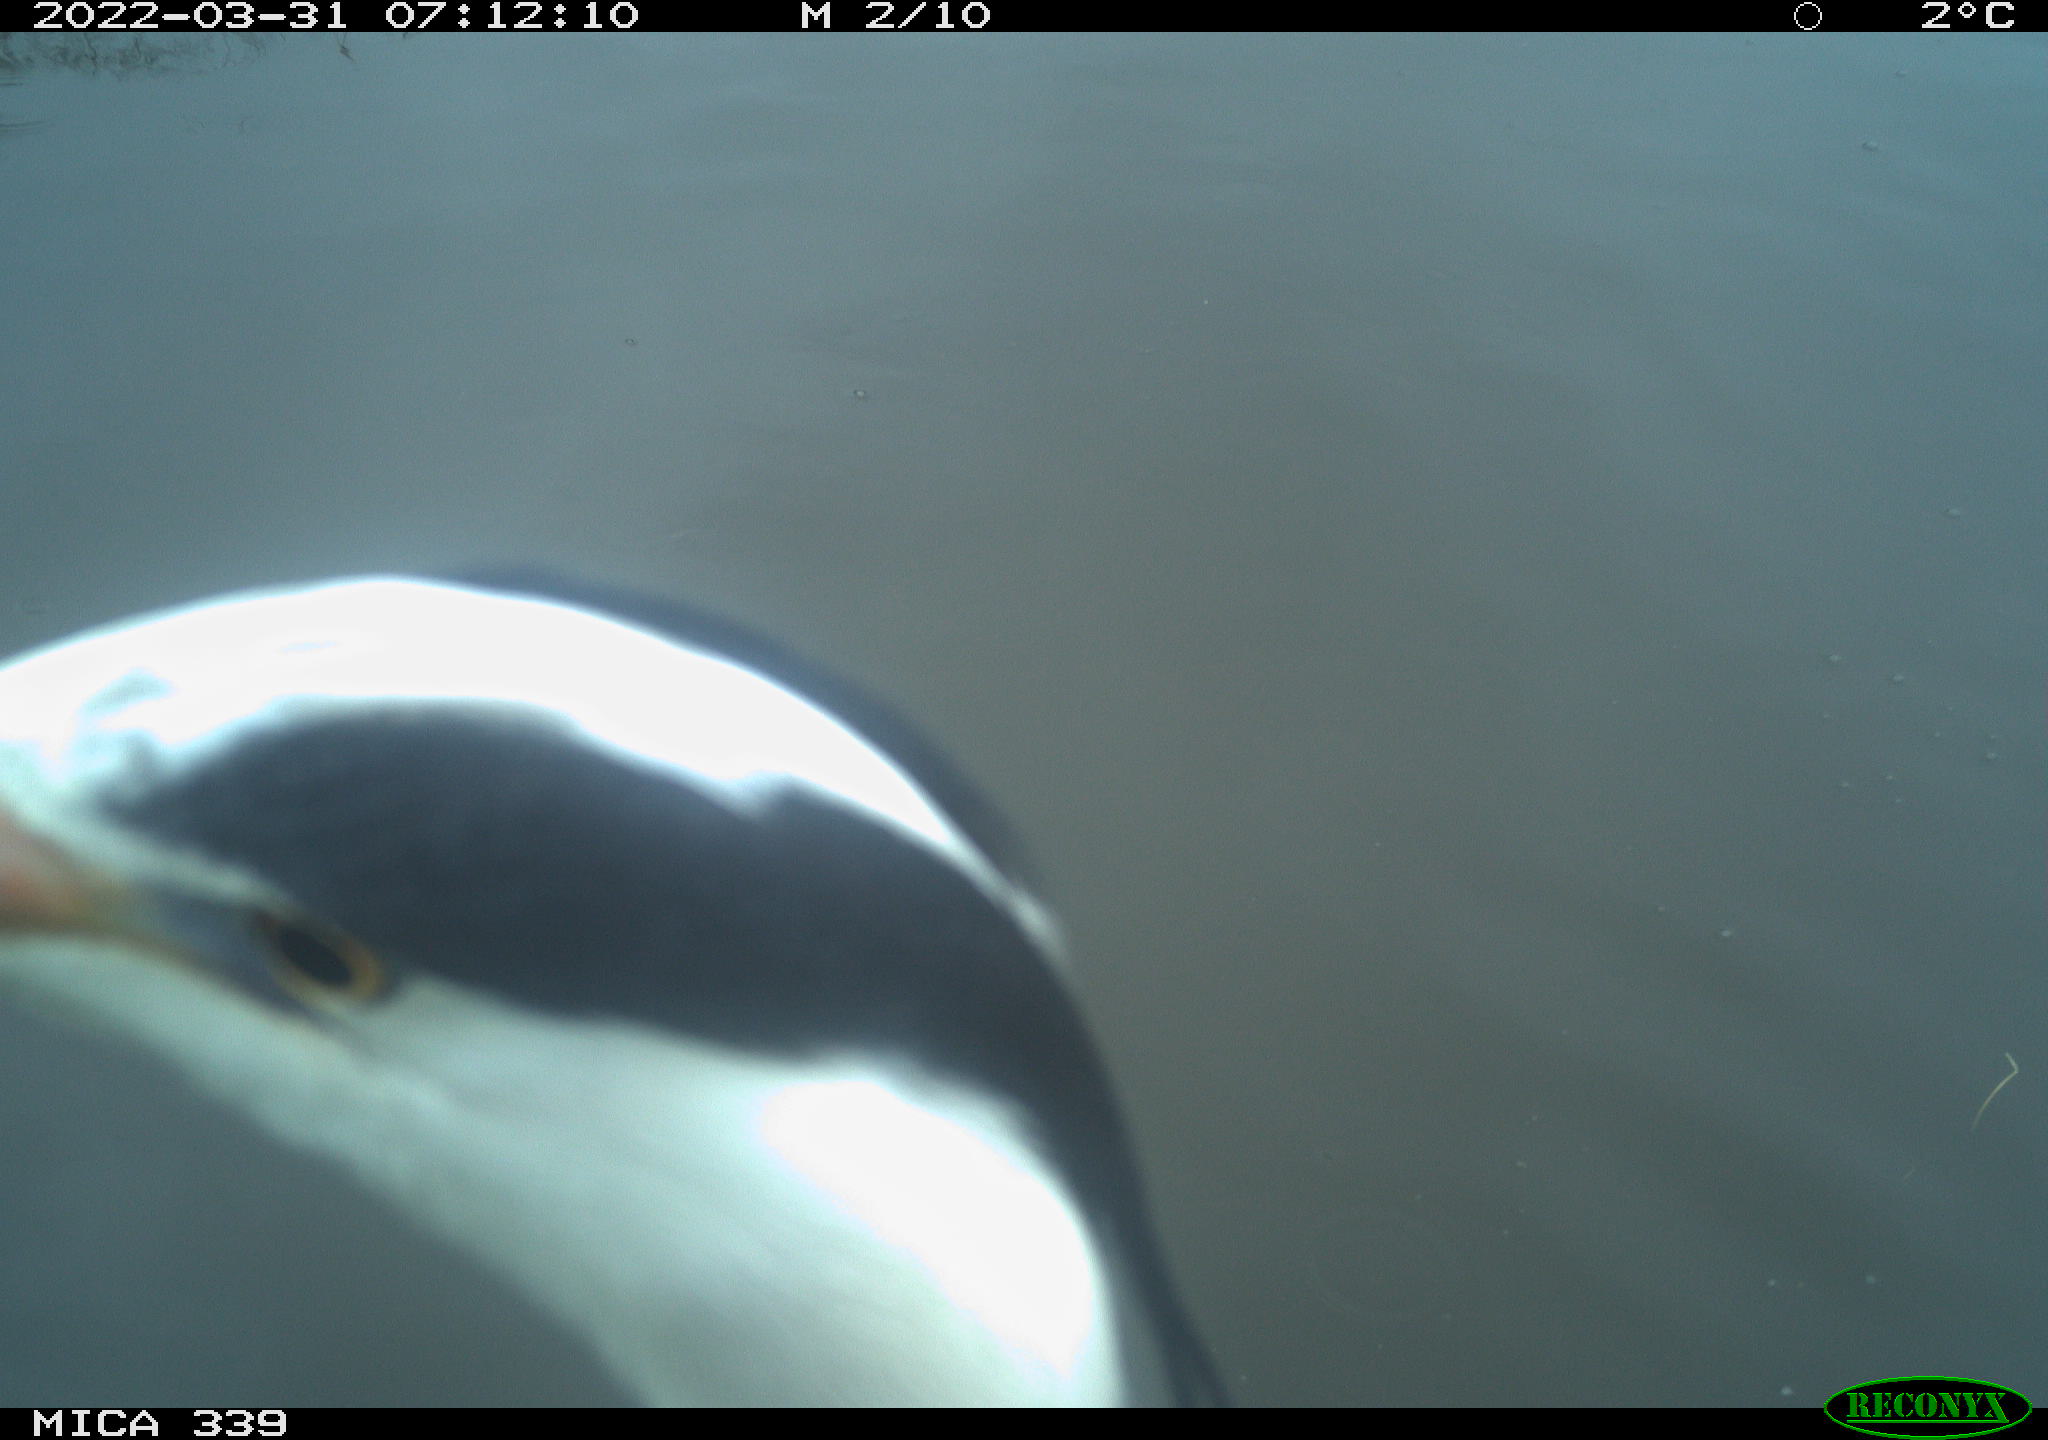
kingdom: Animalia
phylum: Chordata
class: Aves
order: Pelecaniformes
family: Ardeidae
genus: Ardea
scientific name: Ardea cinerea
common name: Grey heron
